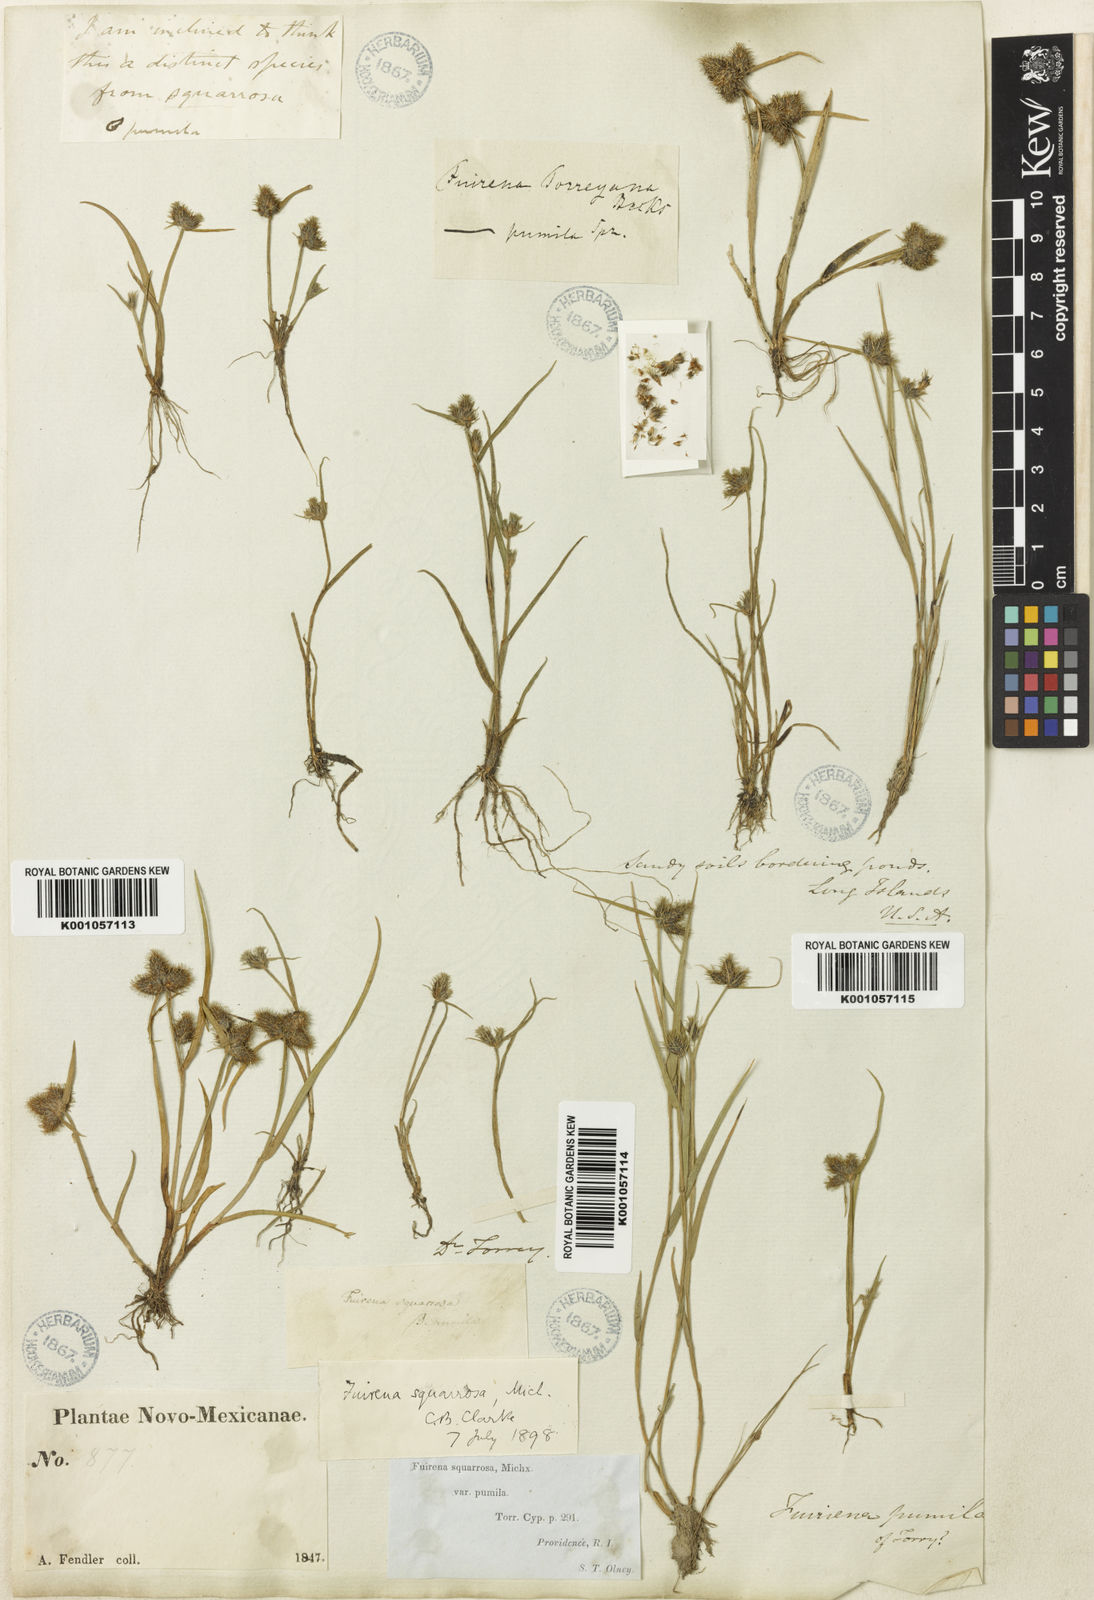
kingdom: Plantae
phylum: Tracheophyta
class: Liliopsida
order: Poales
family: Cyperaceae
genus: Fuirena
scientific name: Fuirena squarrosa
